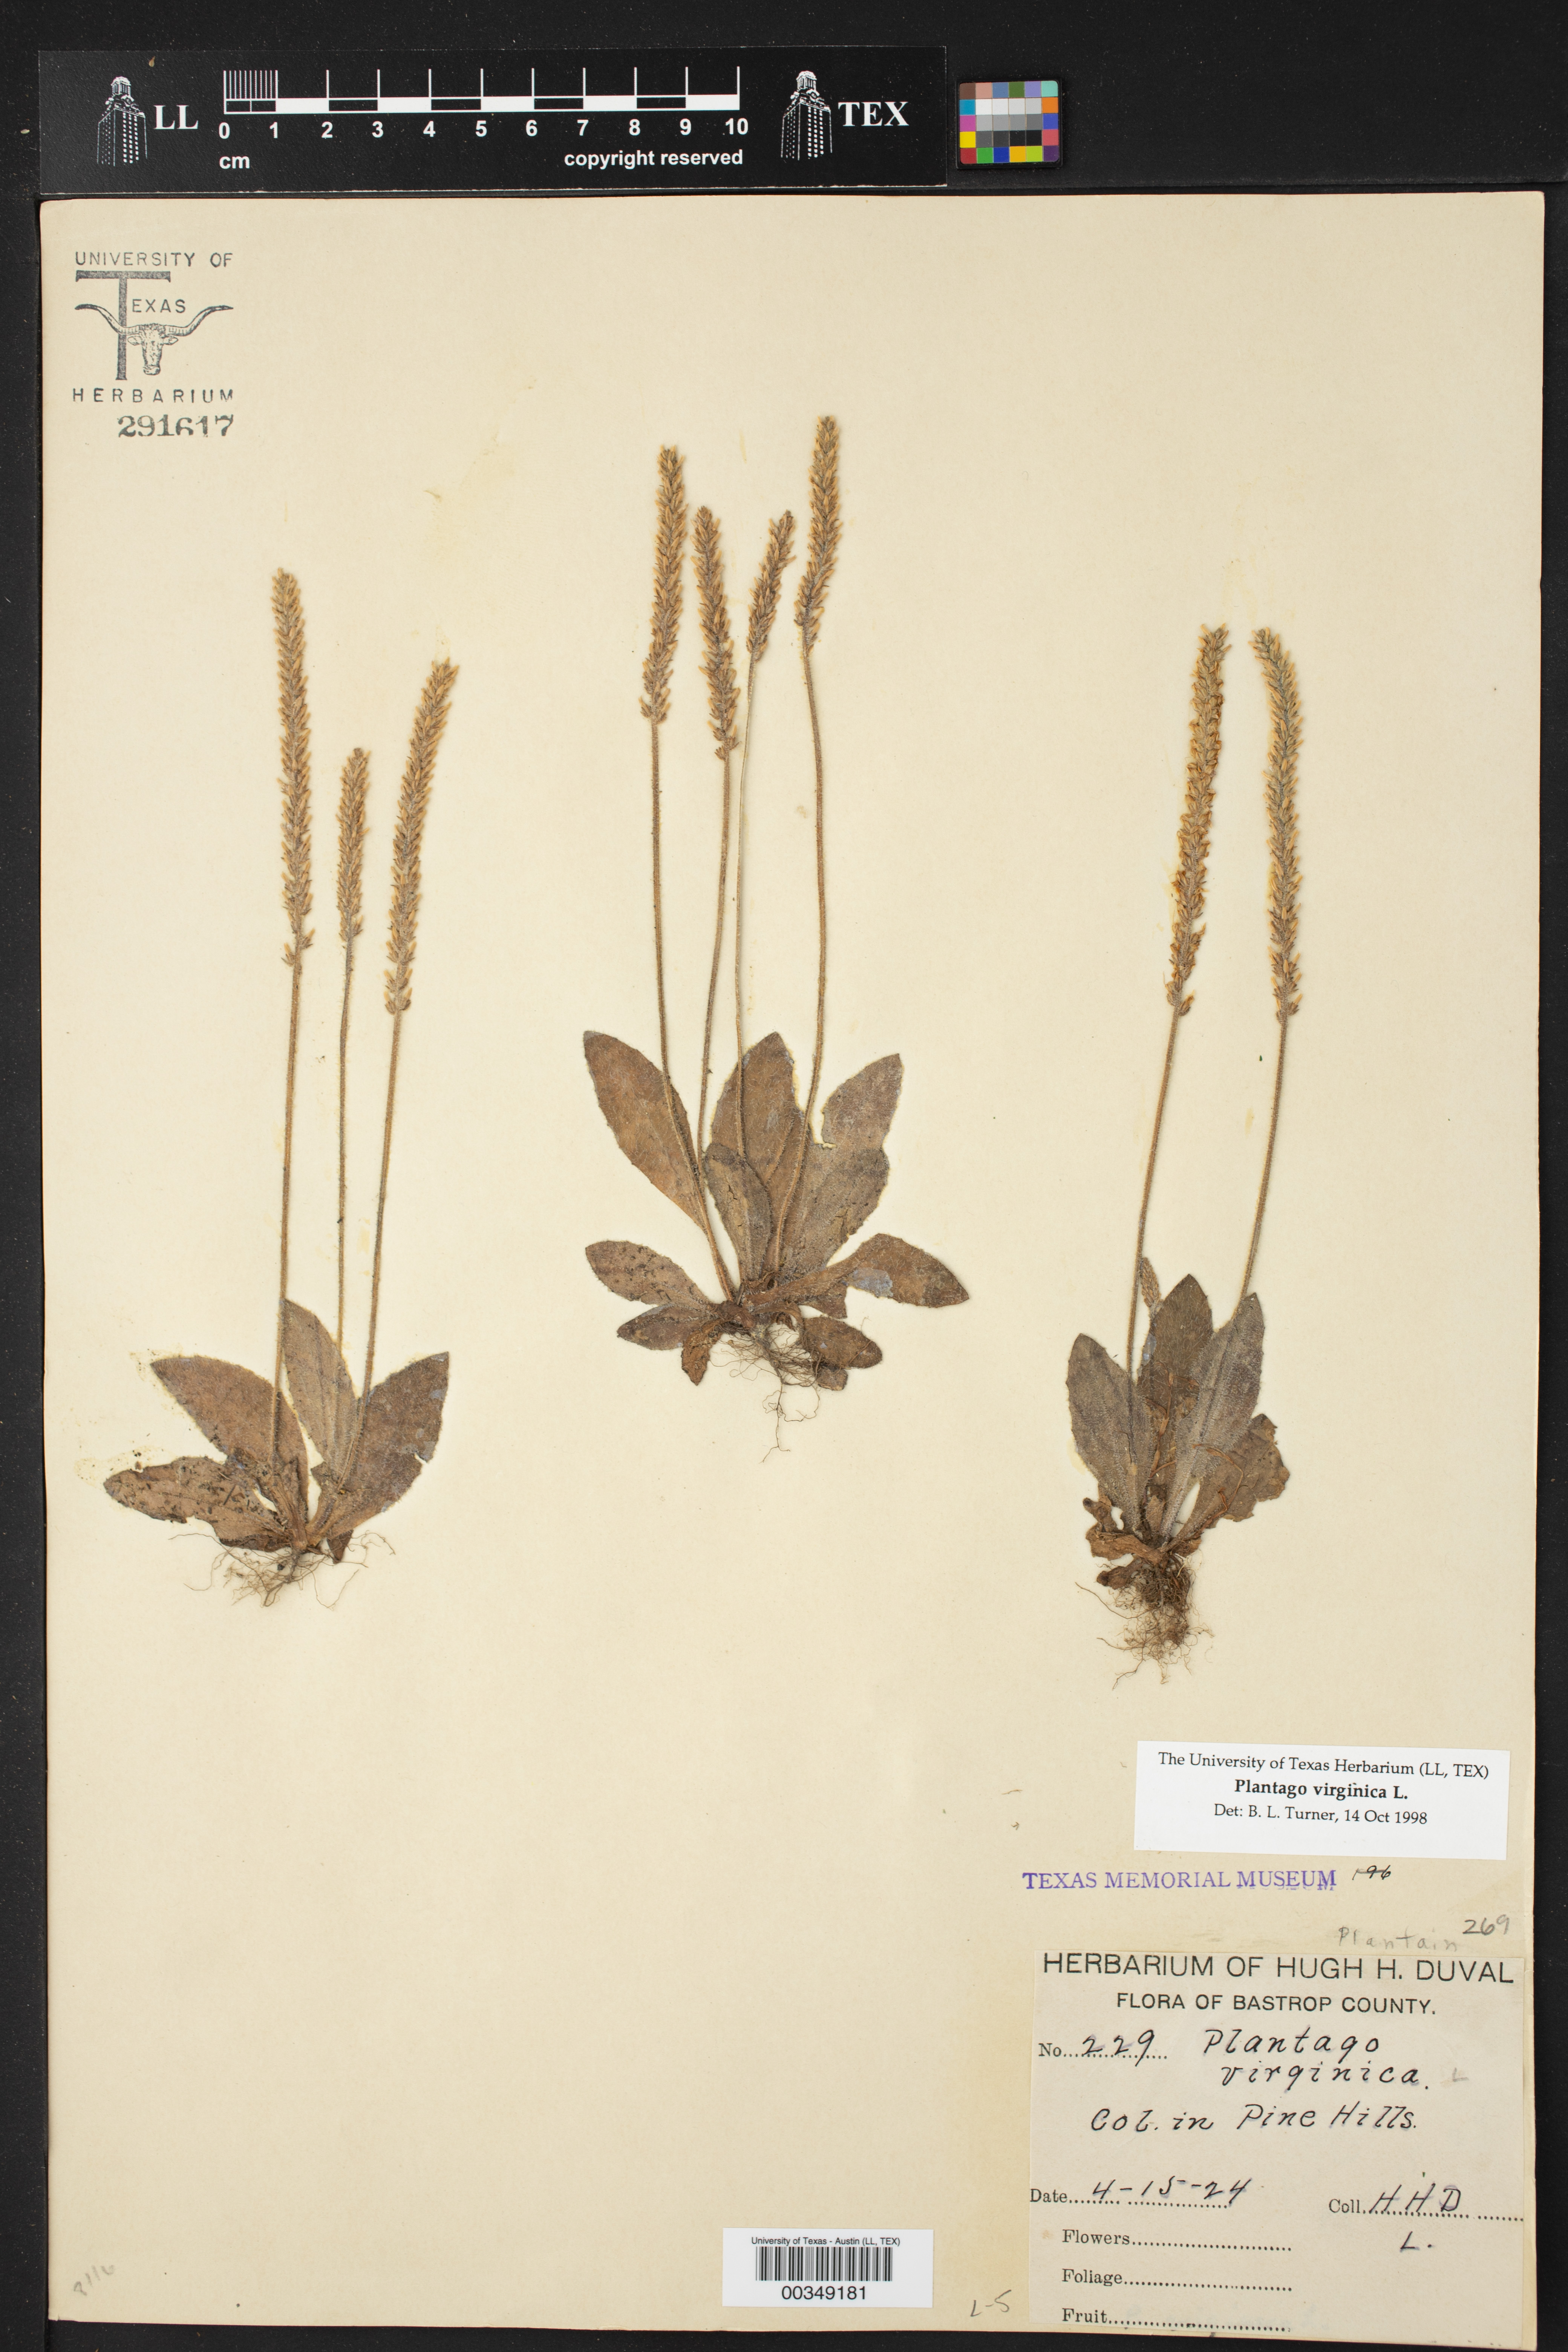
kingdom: Plantae
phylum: Tracheophyta
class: Magnoliopsida
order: Lamiales
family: Plantaginaceae
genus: Plantago
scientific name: Plantago virginica
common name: Hoary plantain
